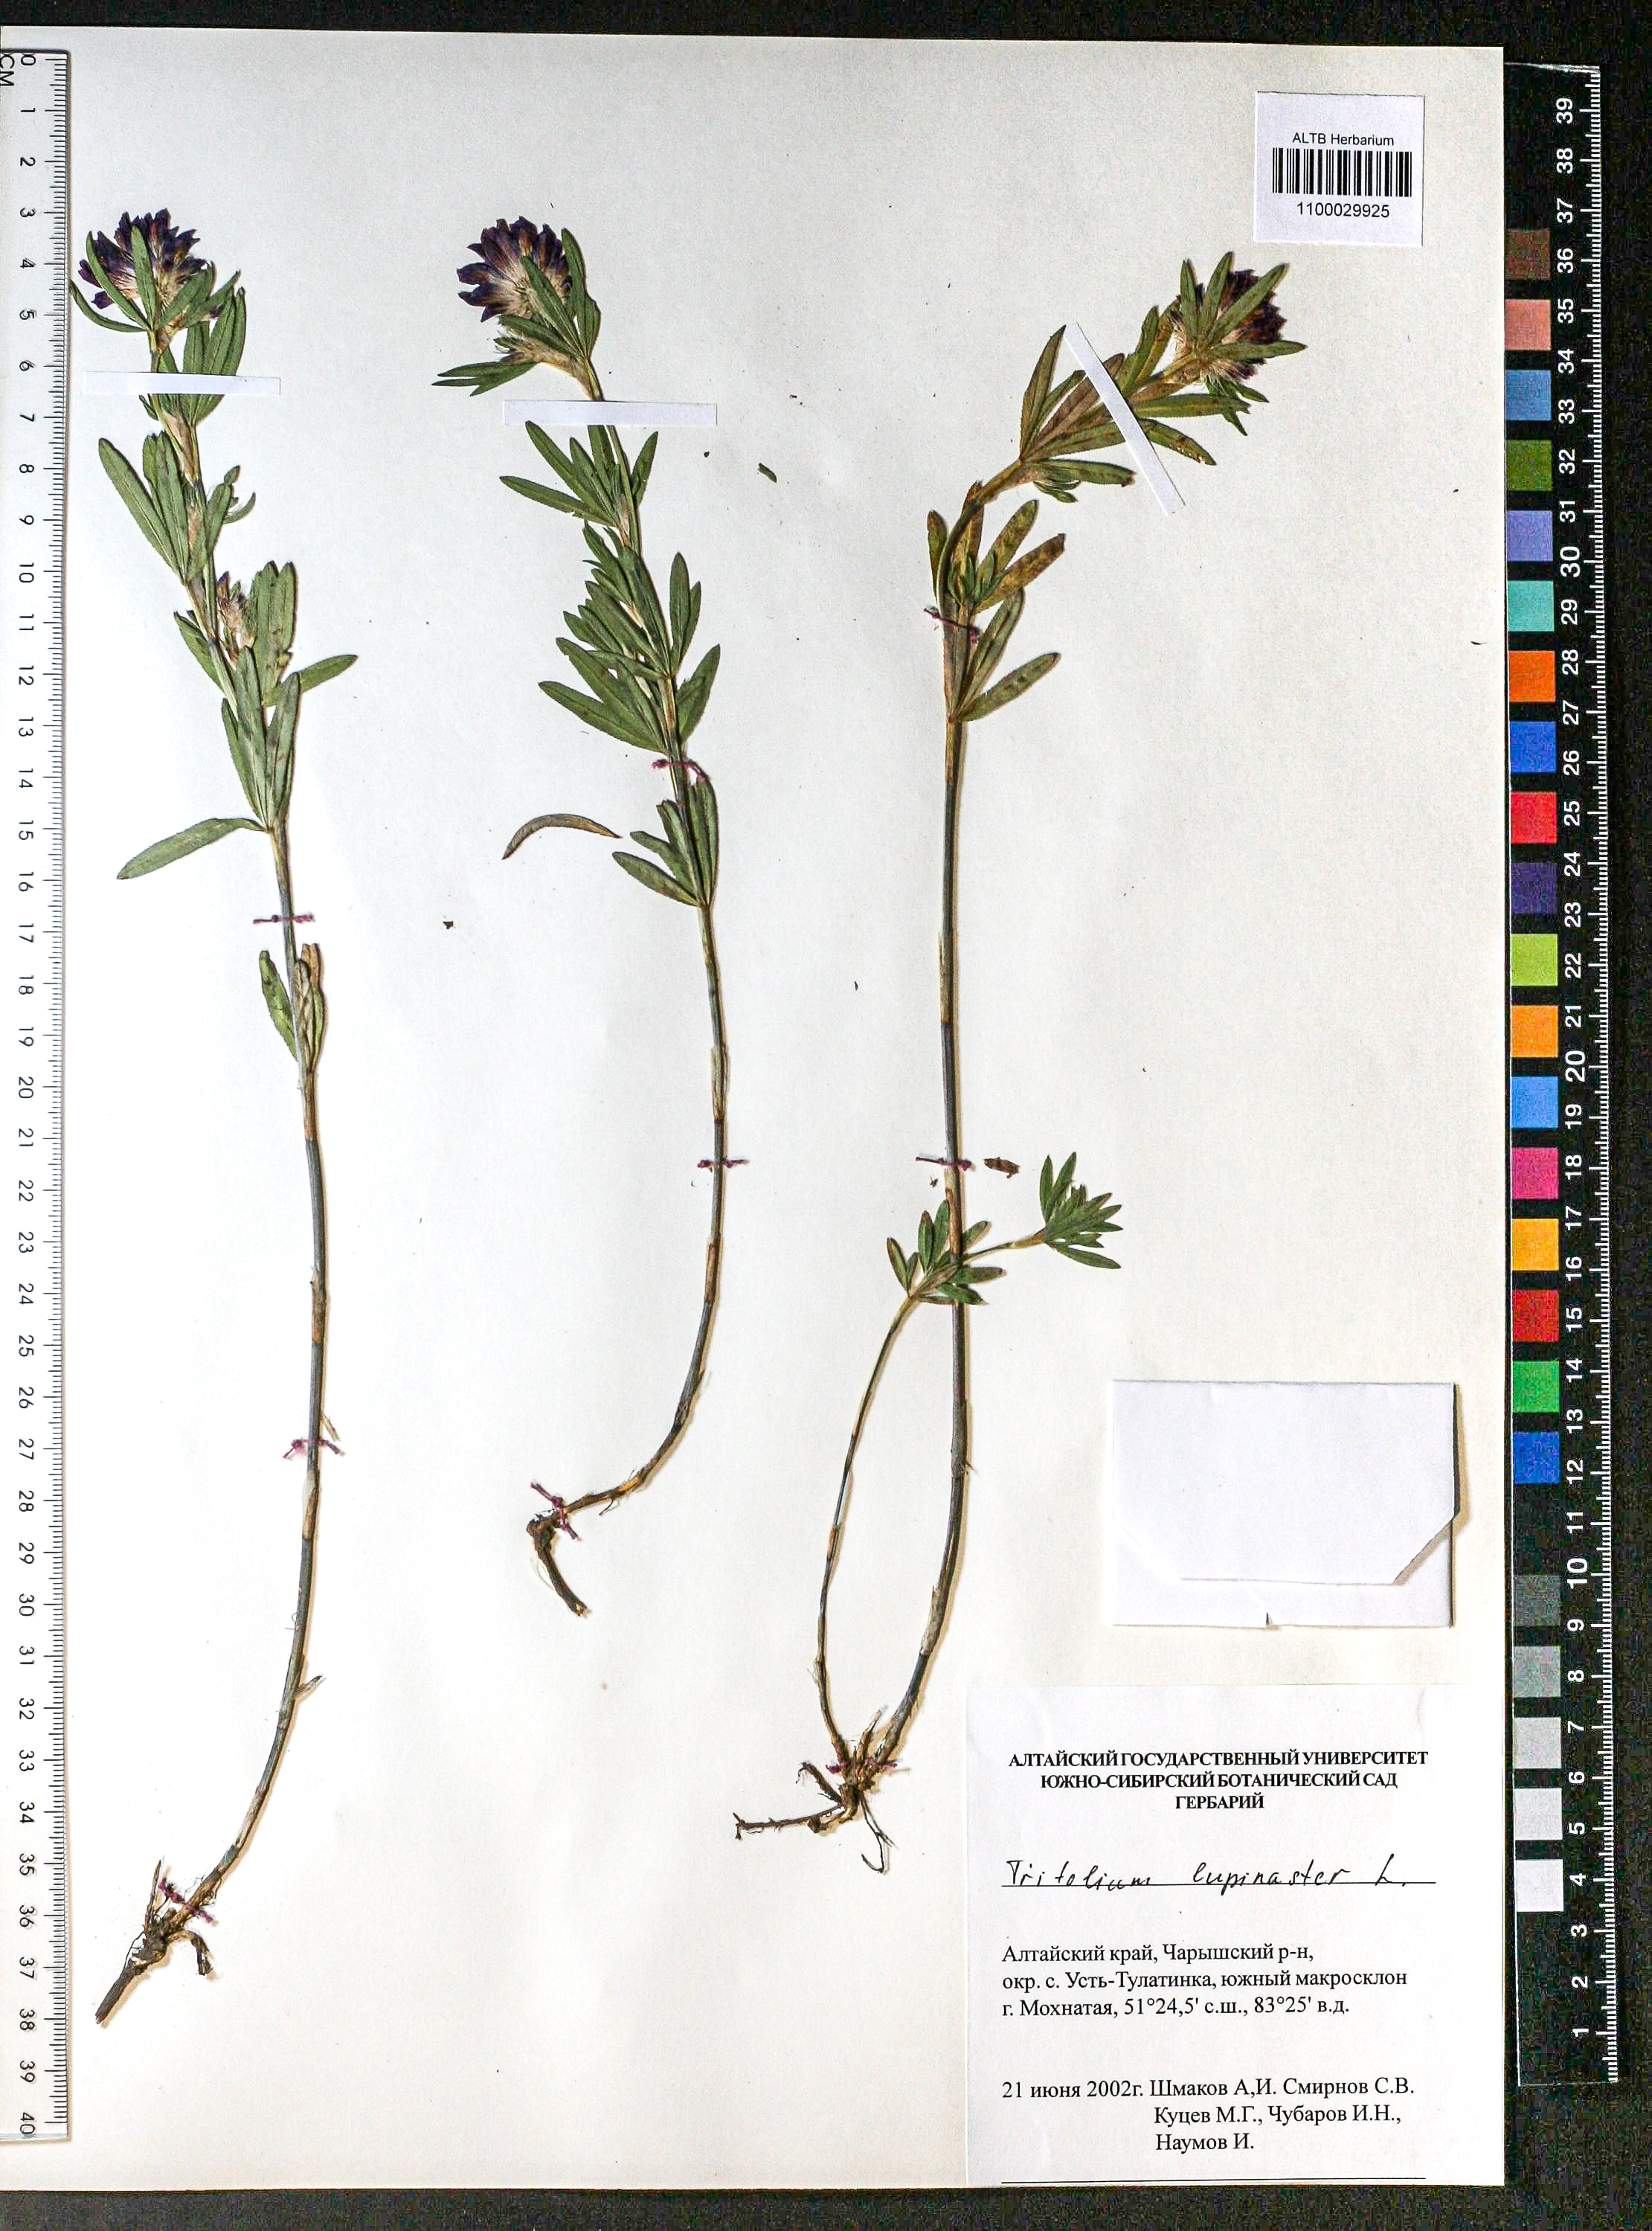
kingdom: Plantae
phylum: Tracheophyta
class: Magnoliopsida
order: Fabales
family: Fabaceae
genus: Trifolium
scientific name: Trifolium lupinaster
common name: Lupine clover
